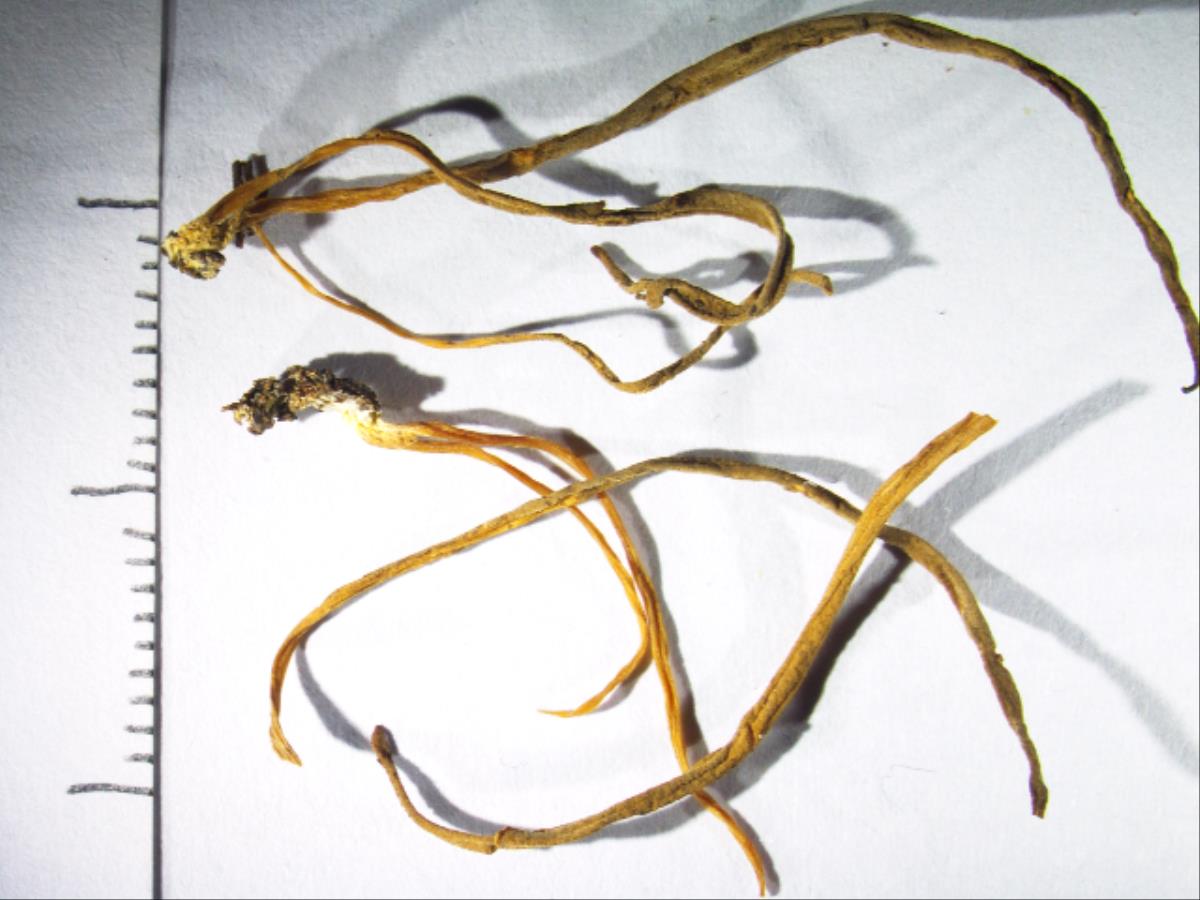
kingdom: Fungi
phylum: Basidiomycota
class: Agaricomycetes
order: Cantharellales
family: Hydnaceae
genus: Clavulina
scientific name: Clavulina samuelsii
